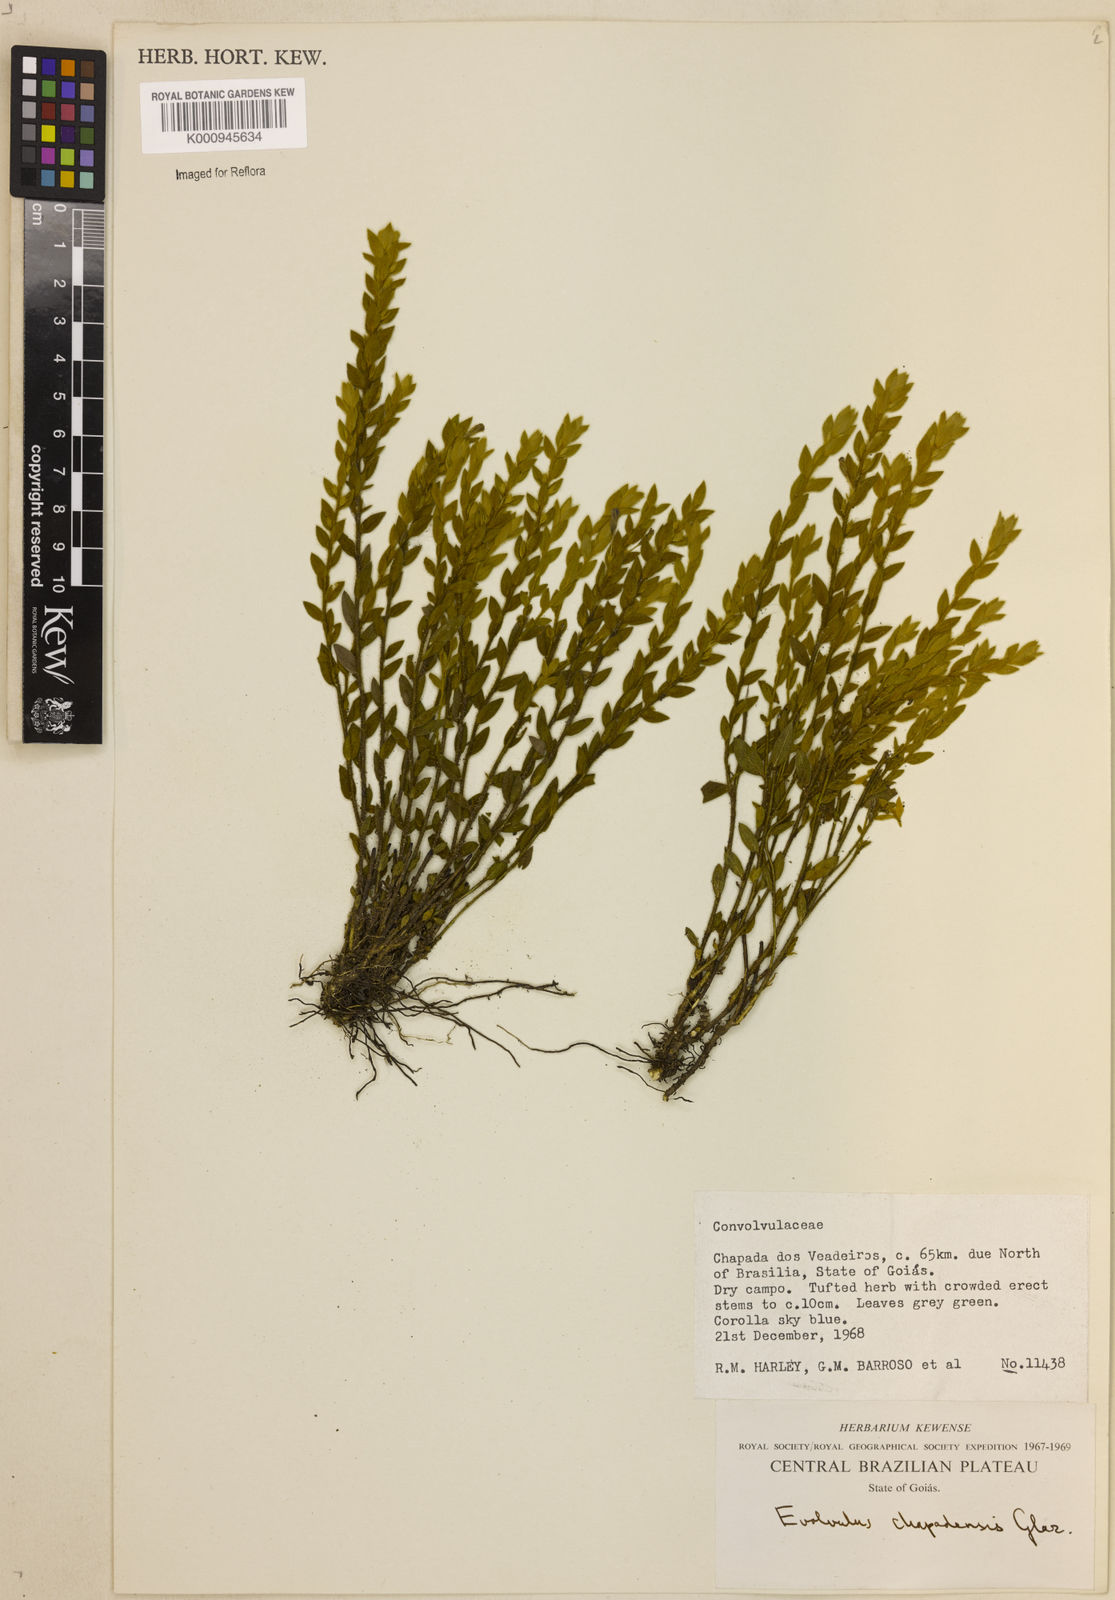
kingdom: Plantae
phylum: Tracheophyta
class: Magnoliopsida
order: Solanales
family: Convolvulaceae
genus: Evolvulus
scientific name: Evolvulus
